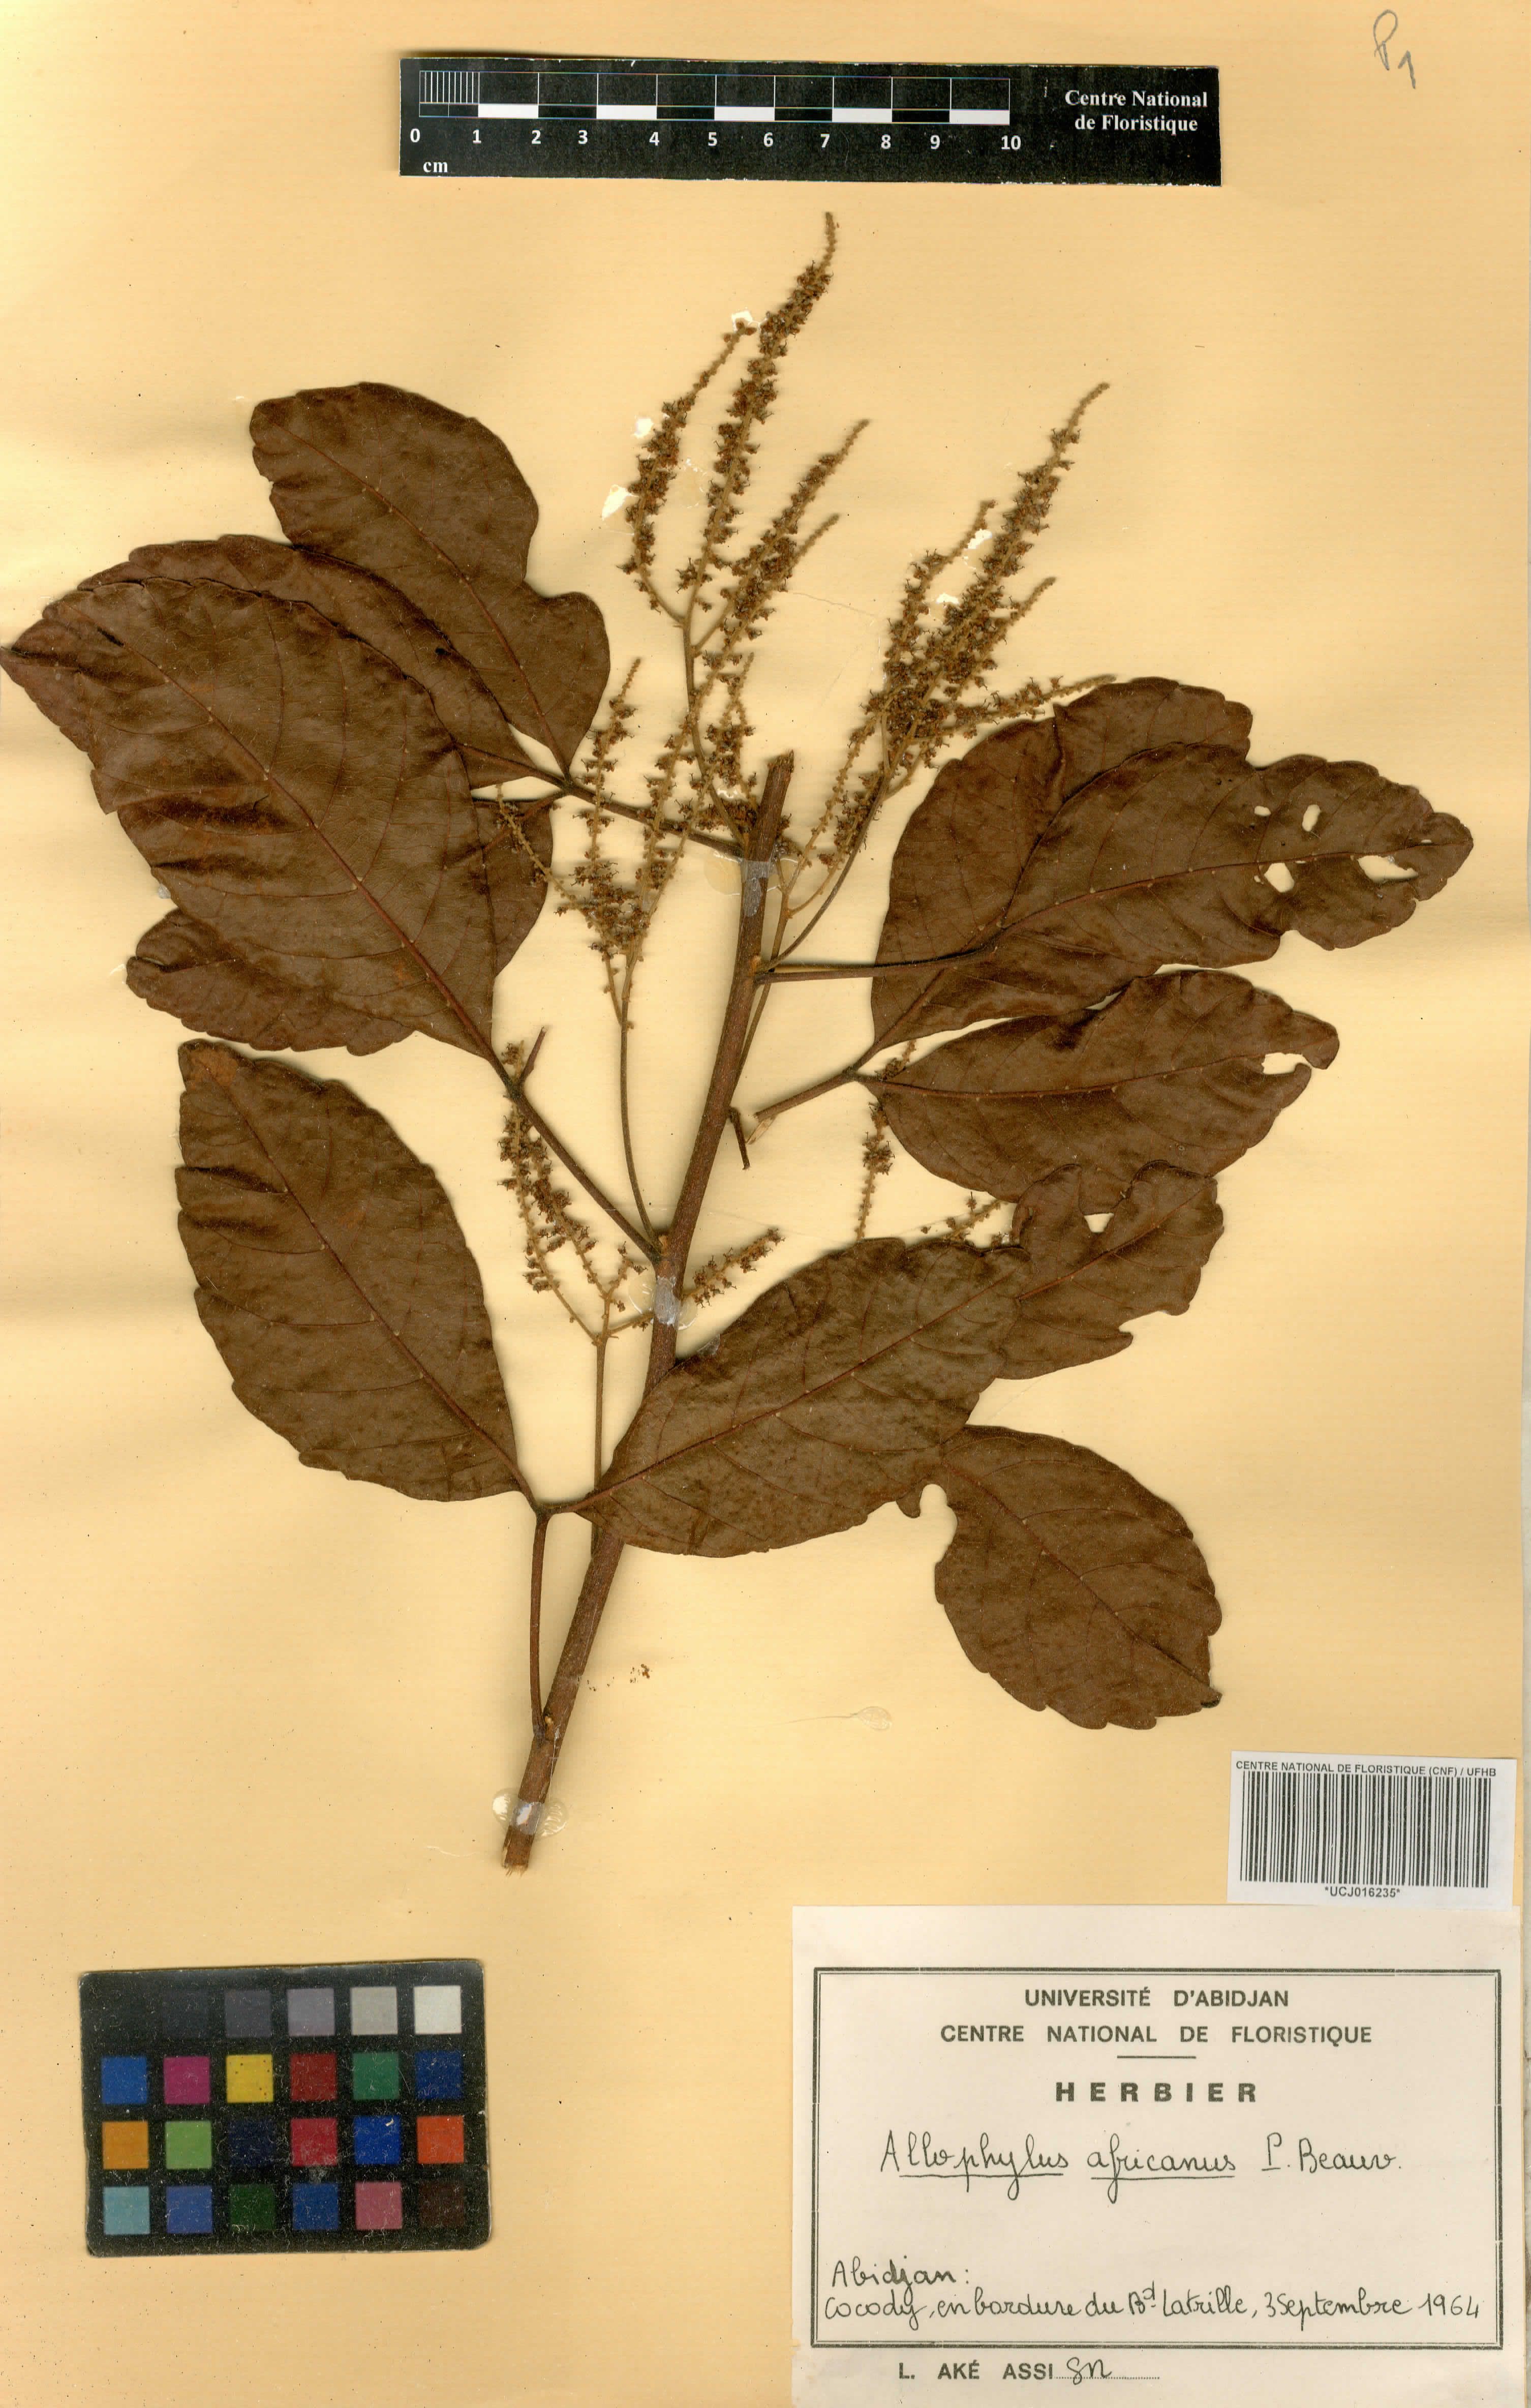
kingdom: Plantae
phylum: Tracheophyta
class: Magnoliopsida
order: Sapindales
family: Sapindaceae
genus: Allophylus
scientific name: Allophylus africanus
